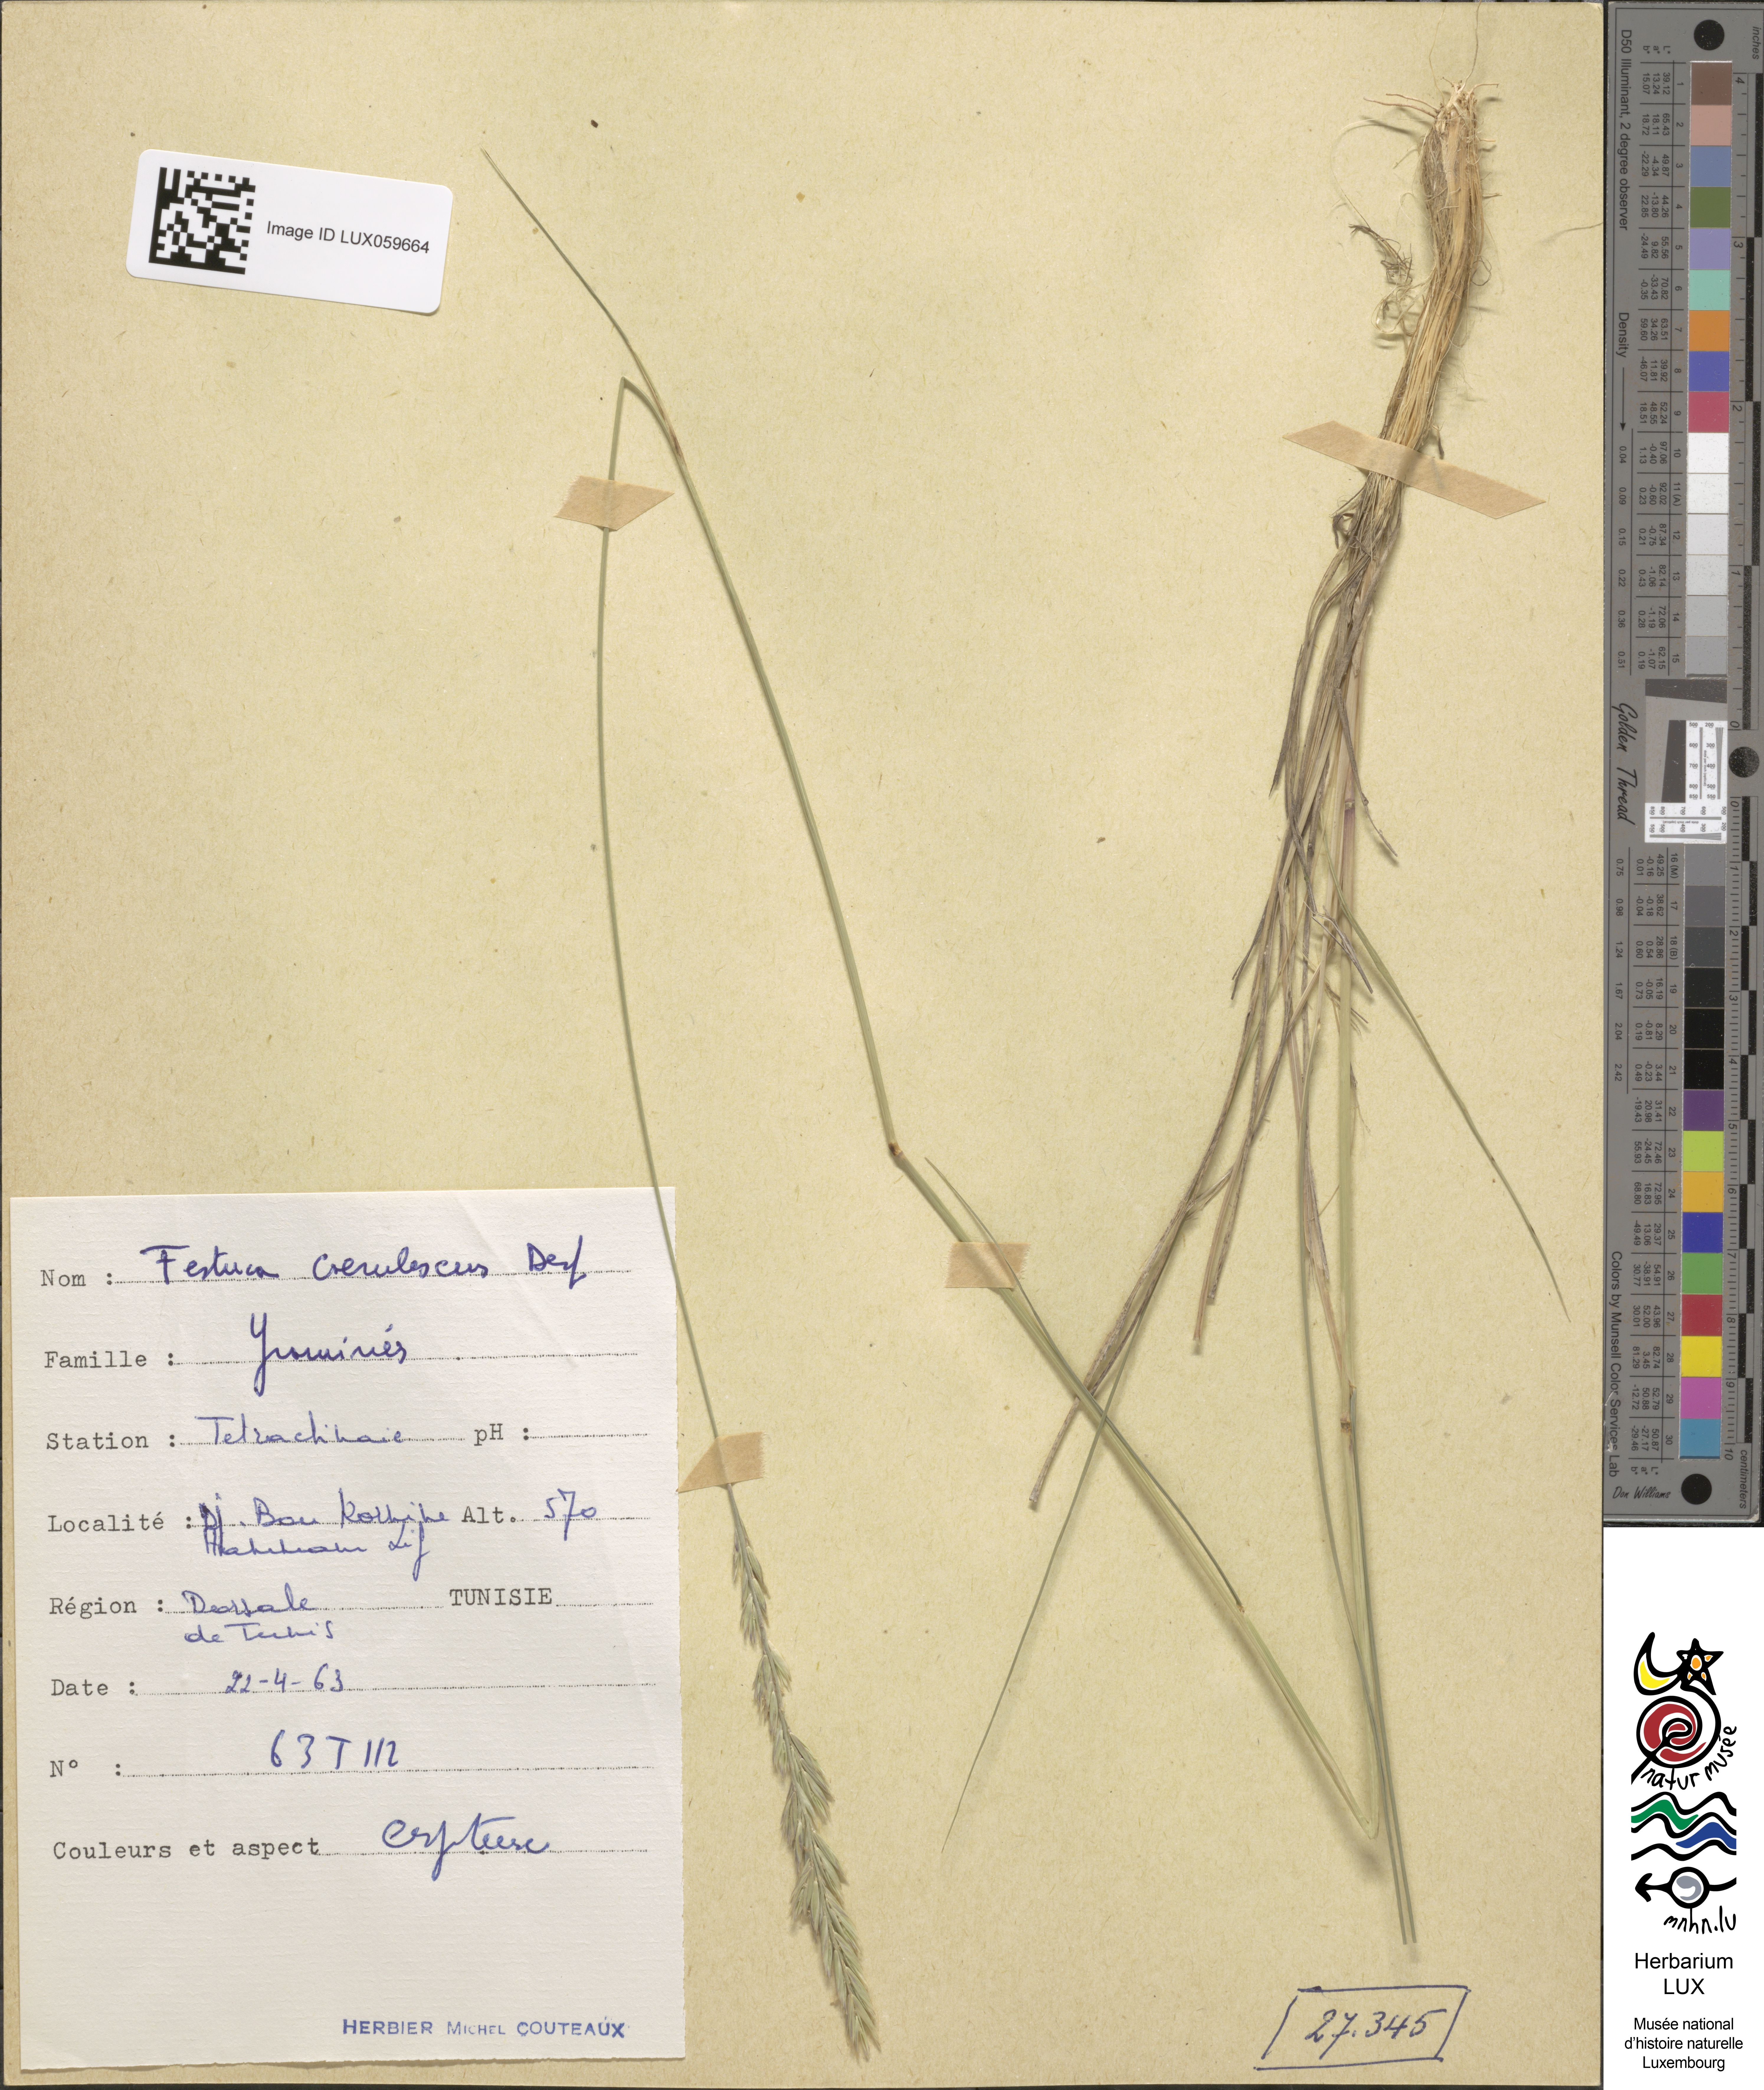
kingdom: Plantae
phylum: Tracheophyta
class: Liliopsida
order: Poales
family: Poaceae
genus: Festuca
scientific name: Festuca caerulescens
